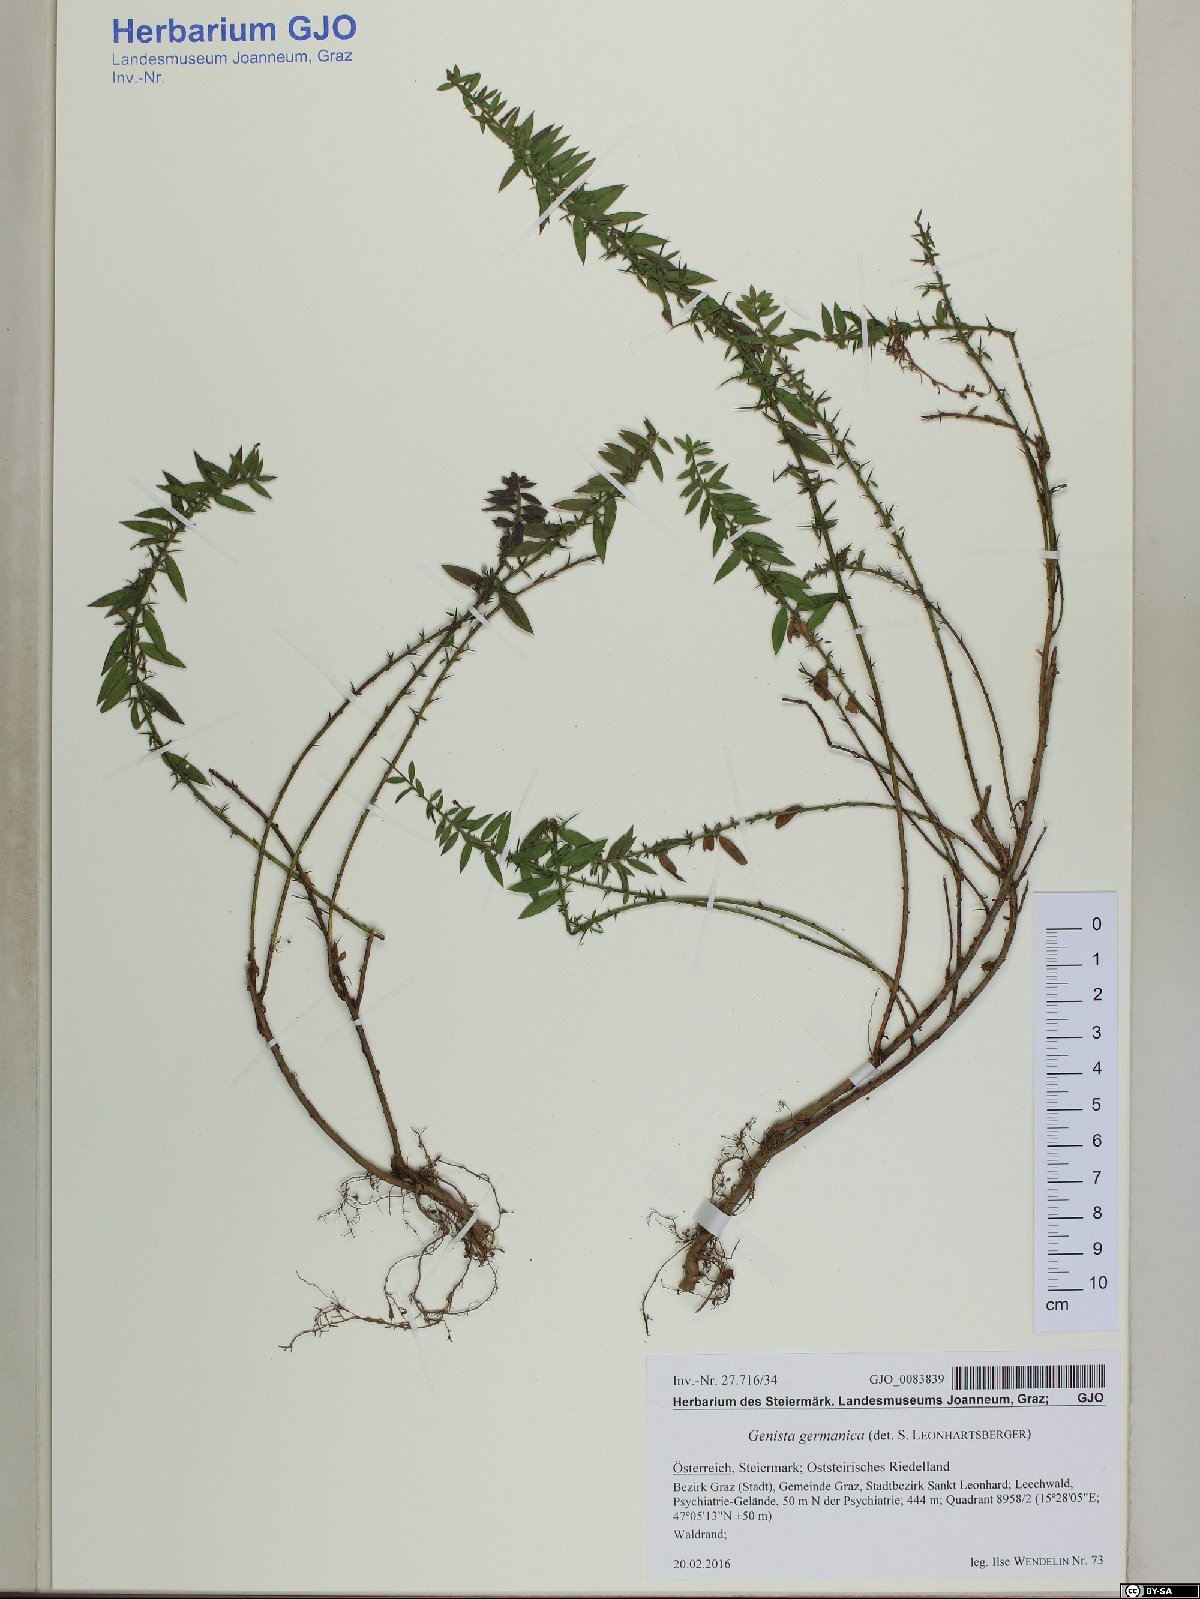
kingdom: Plantae
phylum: Tracheophyta
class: Magnoliopsida
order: Fabales
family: Fabaceae
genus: Genista
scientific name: Genista germanica
